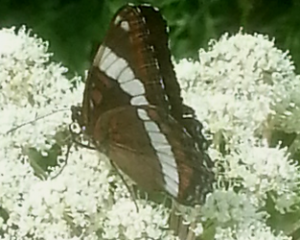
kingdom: Animalia
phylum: Arthropoda
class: Insecta
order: Lepidoptera
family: Nymphalidae
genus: Limenitis
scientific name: Limenitis arthemis
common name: Red-spotted Admiral
